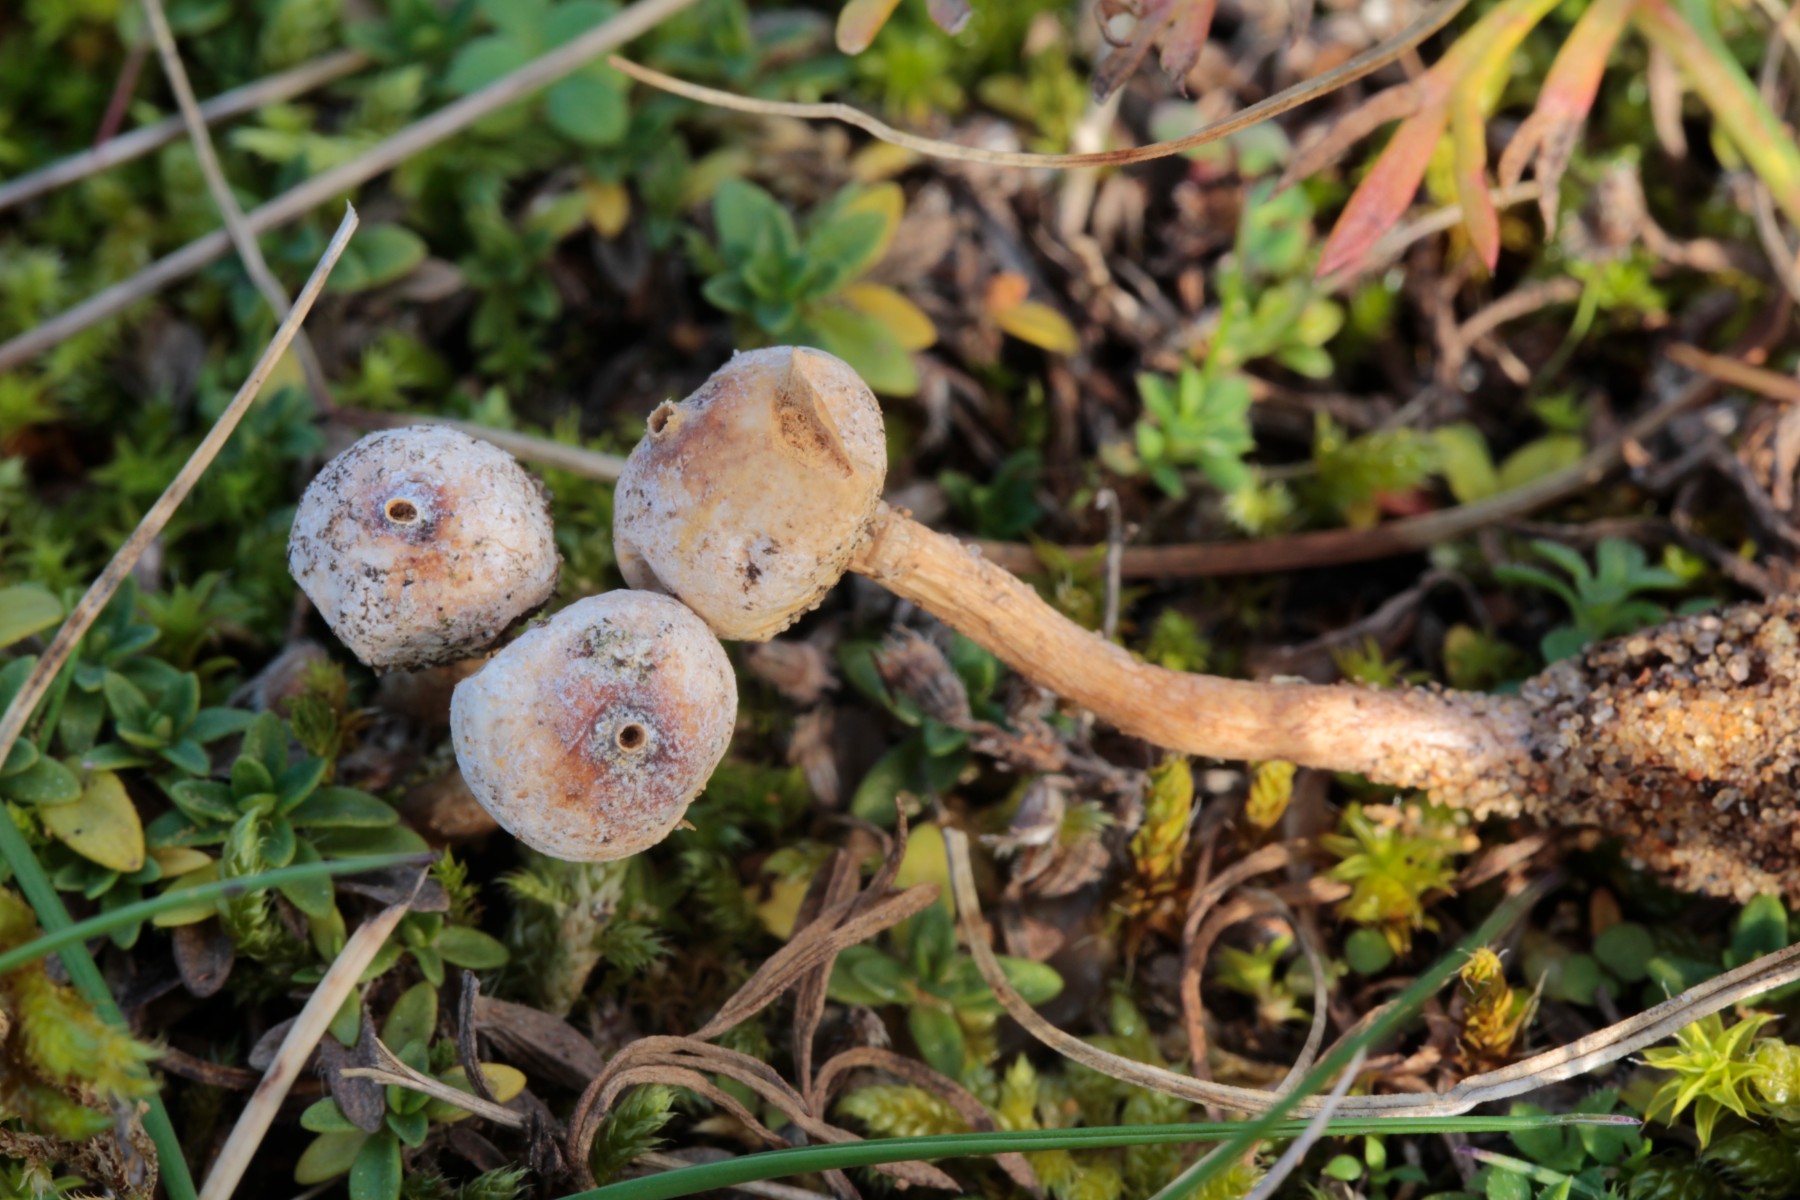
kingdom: Fungi
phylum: Basidiomycota
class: Agaricomycetes
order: Agaricales
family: Agaricaceae
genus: Tulostoma
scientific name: Tulostoma brumale
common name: vinter-stilkbovist
